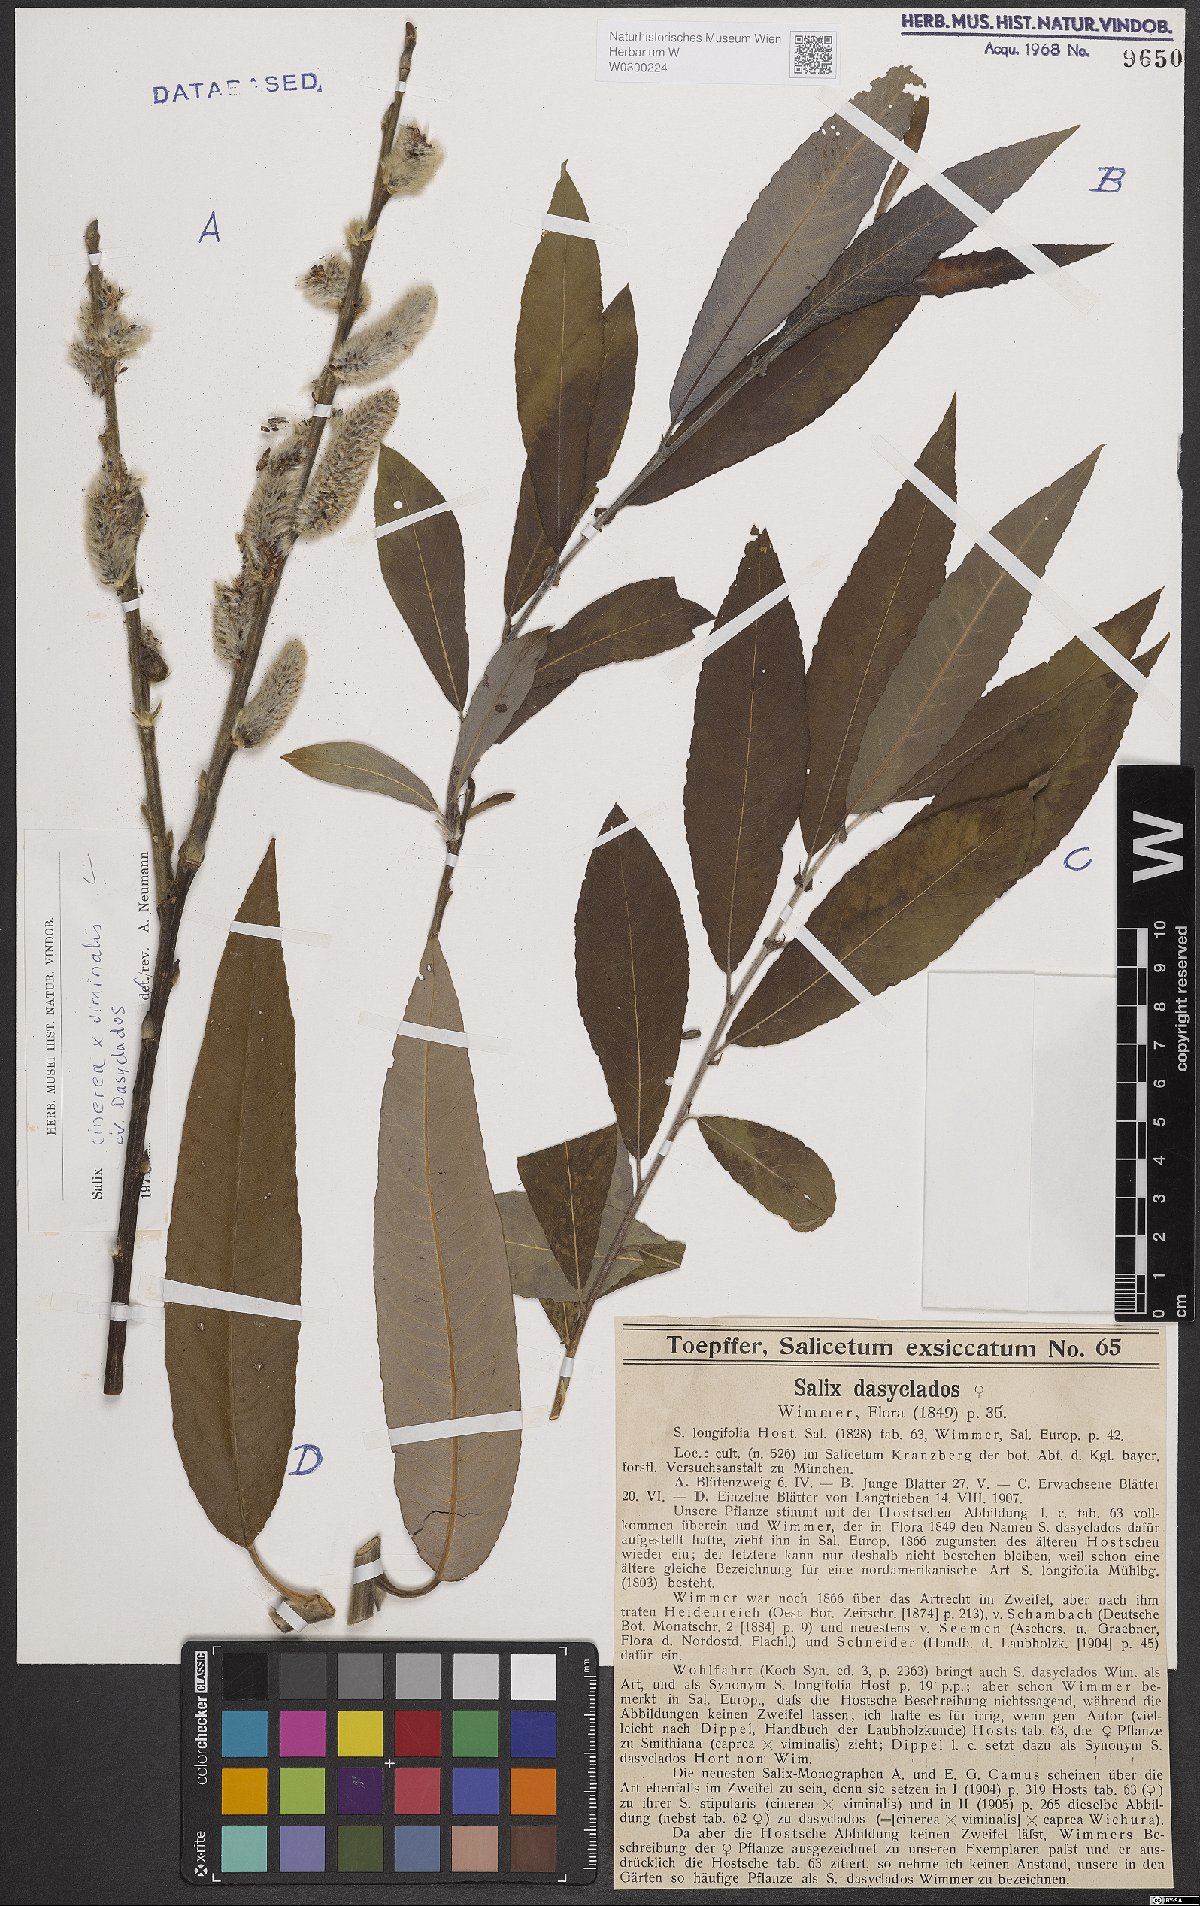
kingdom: Plantae
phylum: Tracheophyta
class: Magnoliopsida
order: Malpighiales
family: Salicaceae
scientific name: Salicaceae
